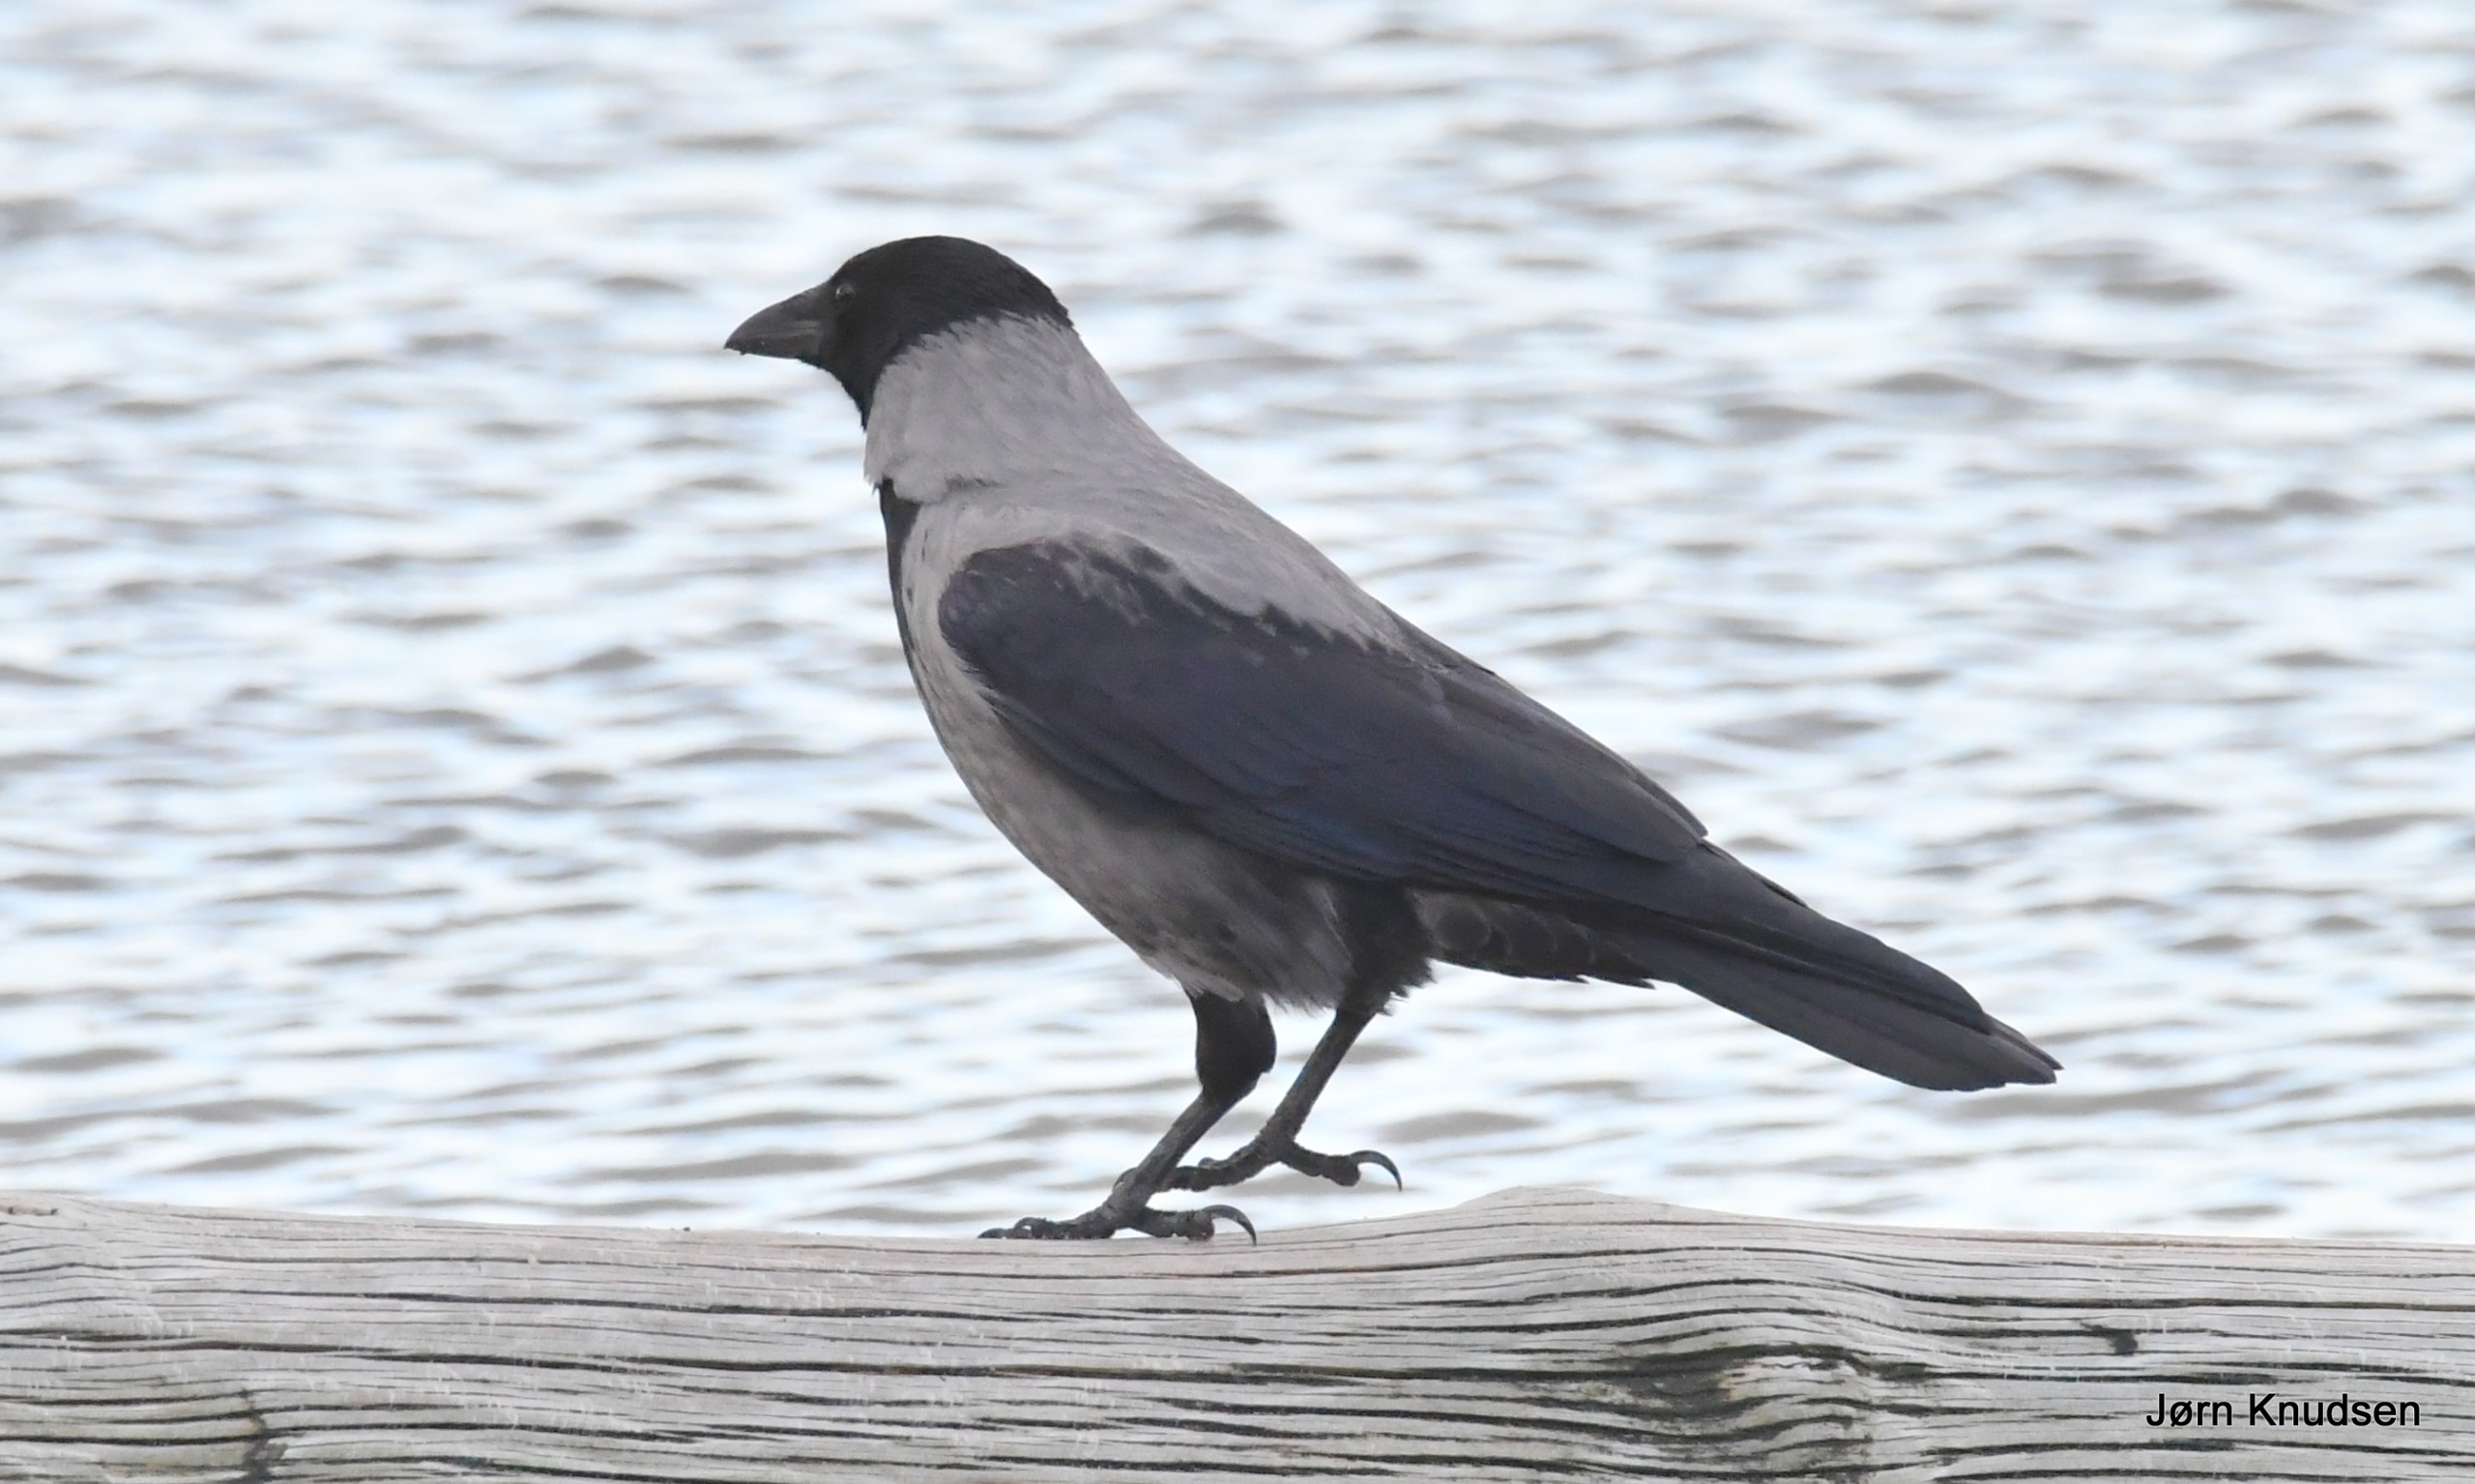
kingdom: Animalia
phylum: Chordata
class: Aves
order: Passeriformes
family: Corvidae
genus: Corvus
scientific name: Corvus cornix
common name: Gråkrage
